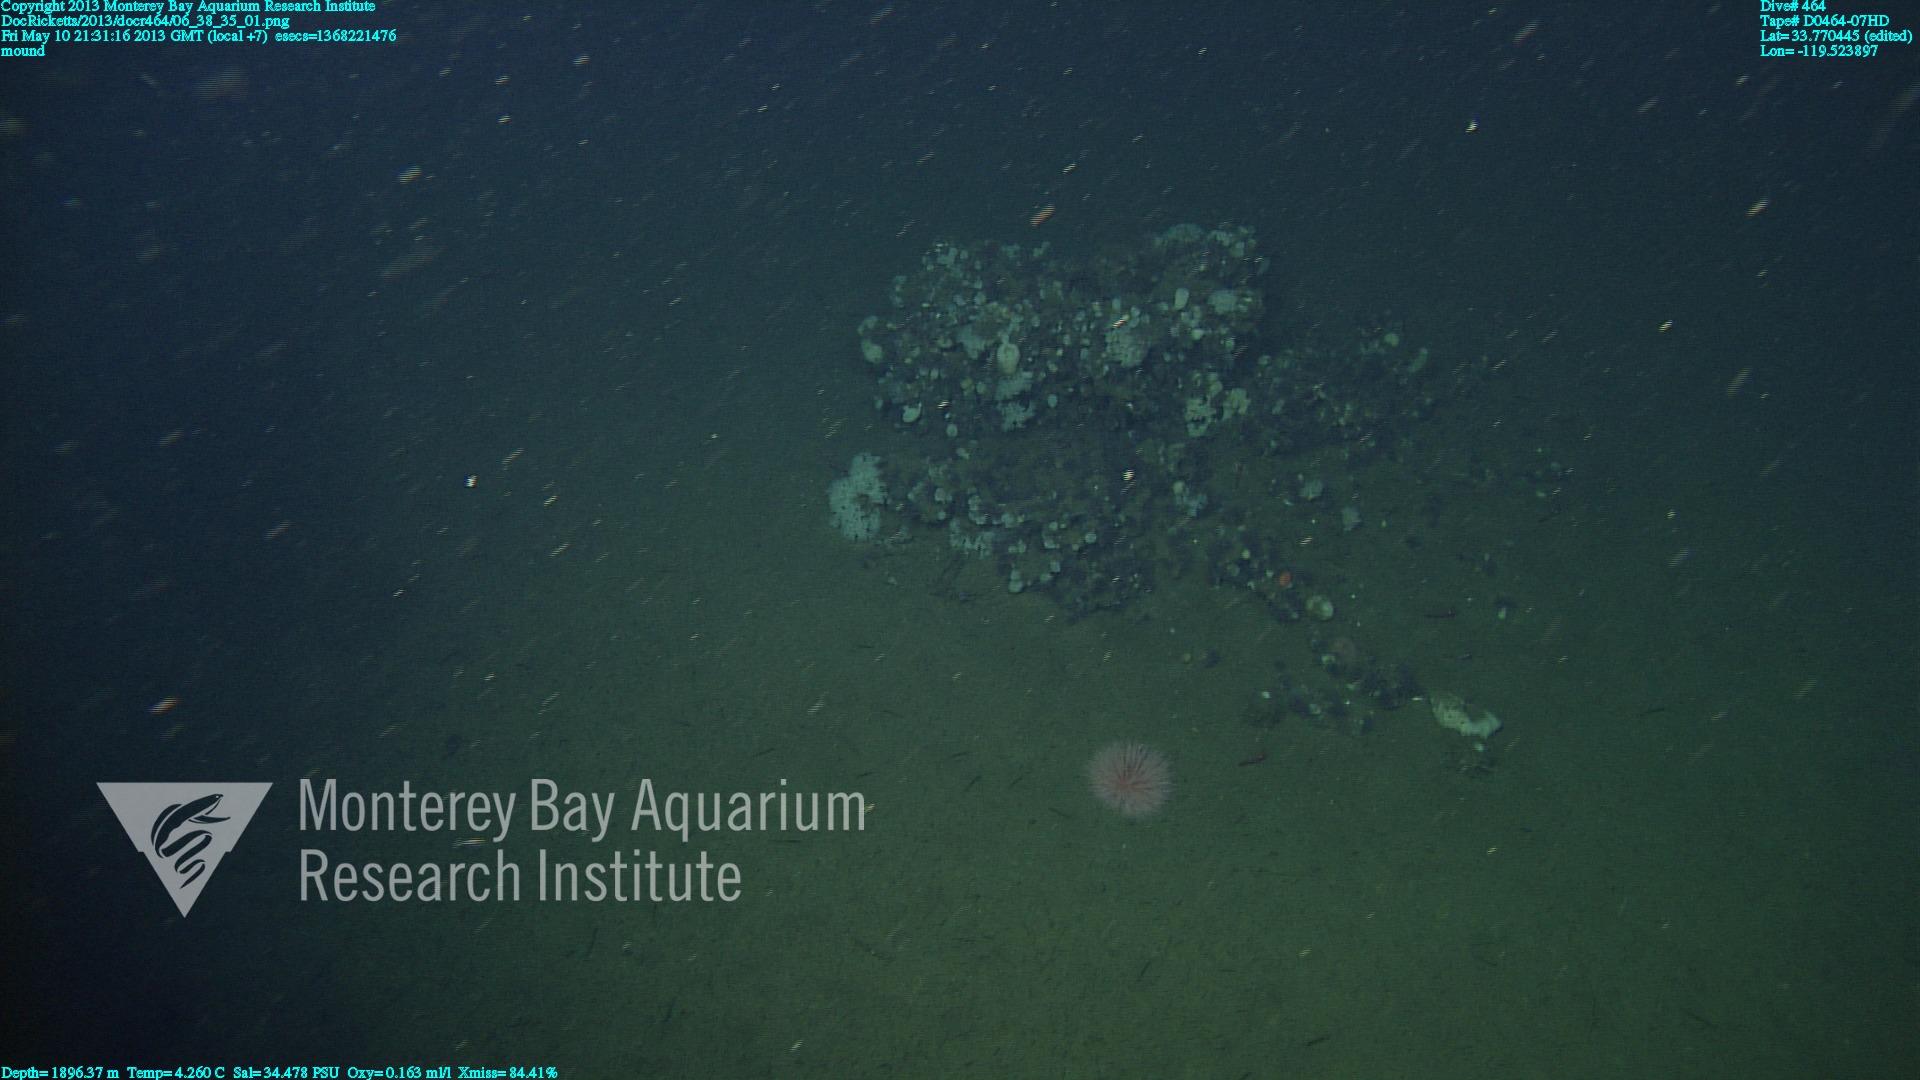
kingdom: Animalia
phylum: Porifera
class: Hexactinellida
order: Sceptrulophora
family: Farreidae
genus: Farrea
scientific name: Farrea
